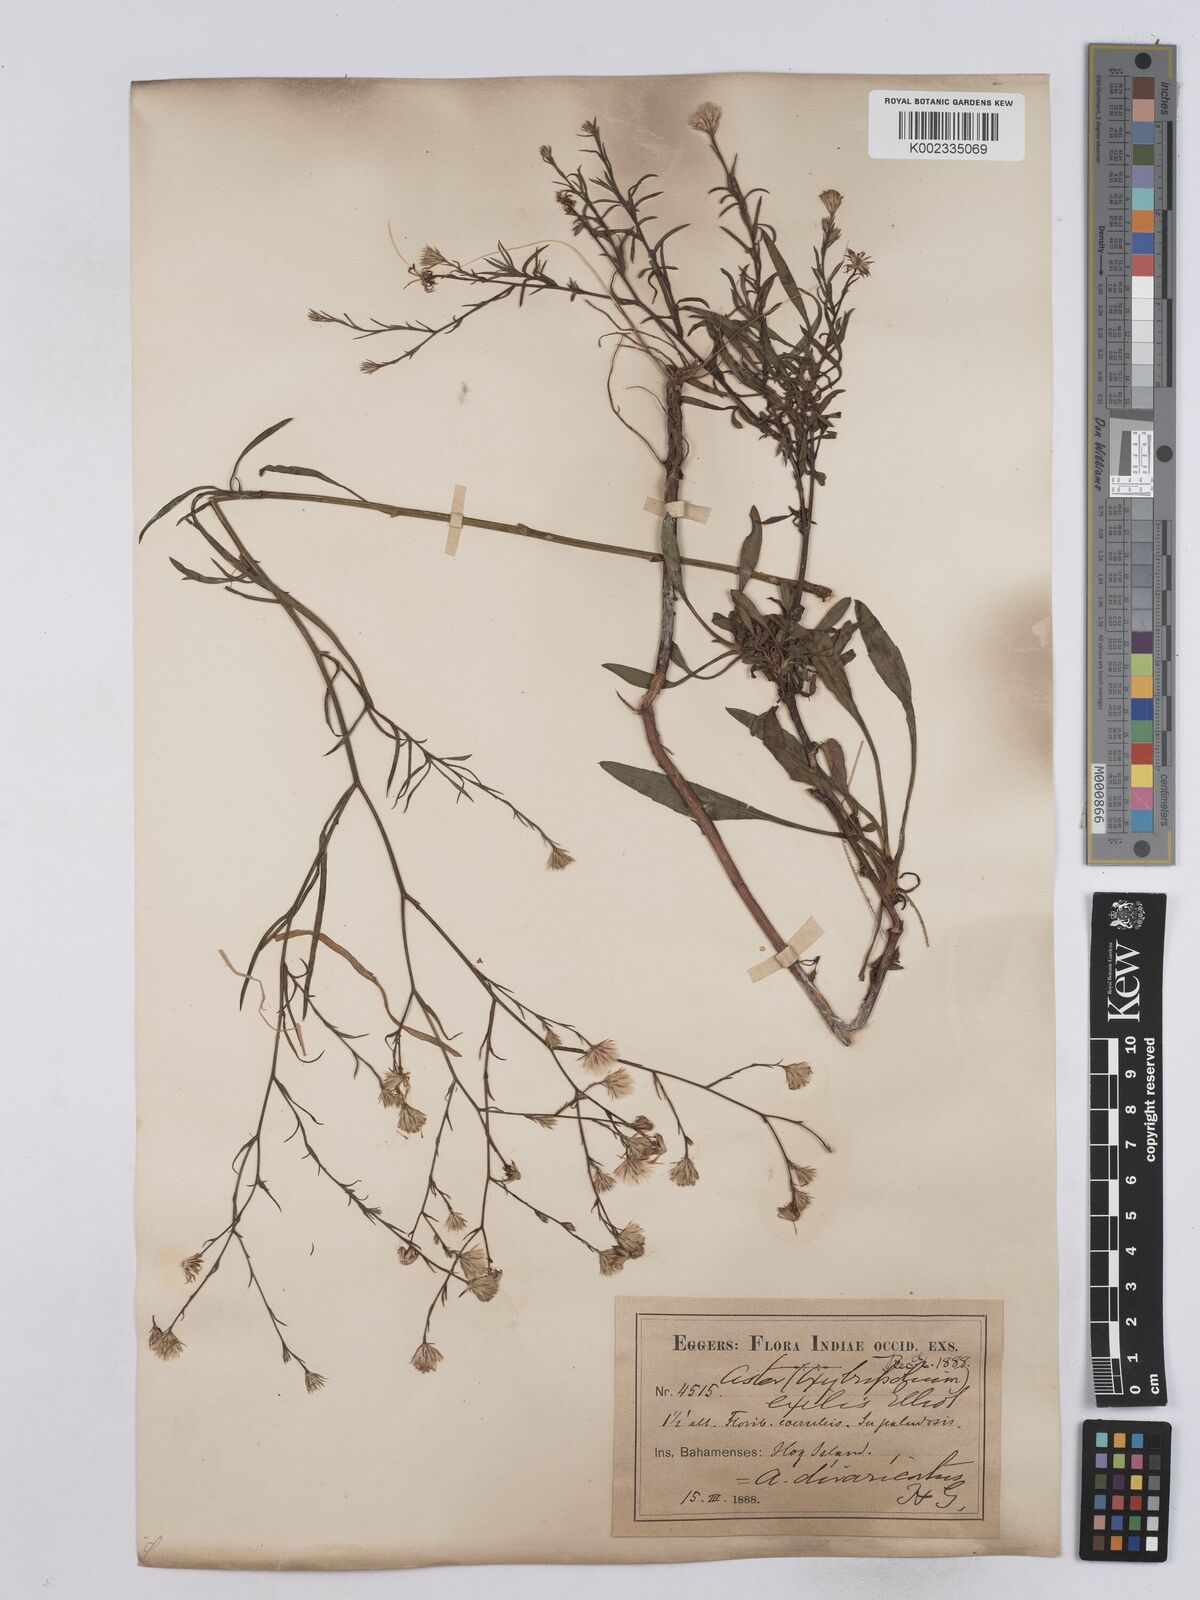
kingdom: Plantae
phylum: Tracheophyta
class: Magnoliopsida
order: Asterales
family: Asteraceae
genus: Symphyotrichum
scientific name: Symphyotrichum subulatum
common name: Annual saltmarsh aster
